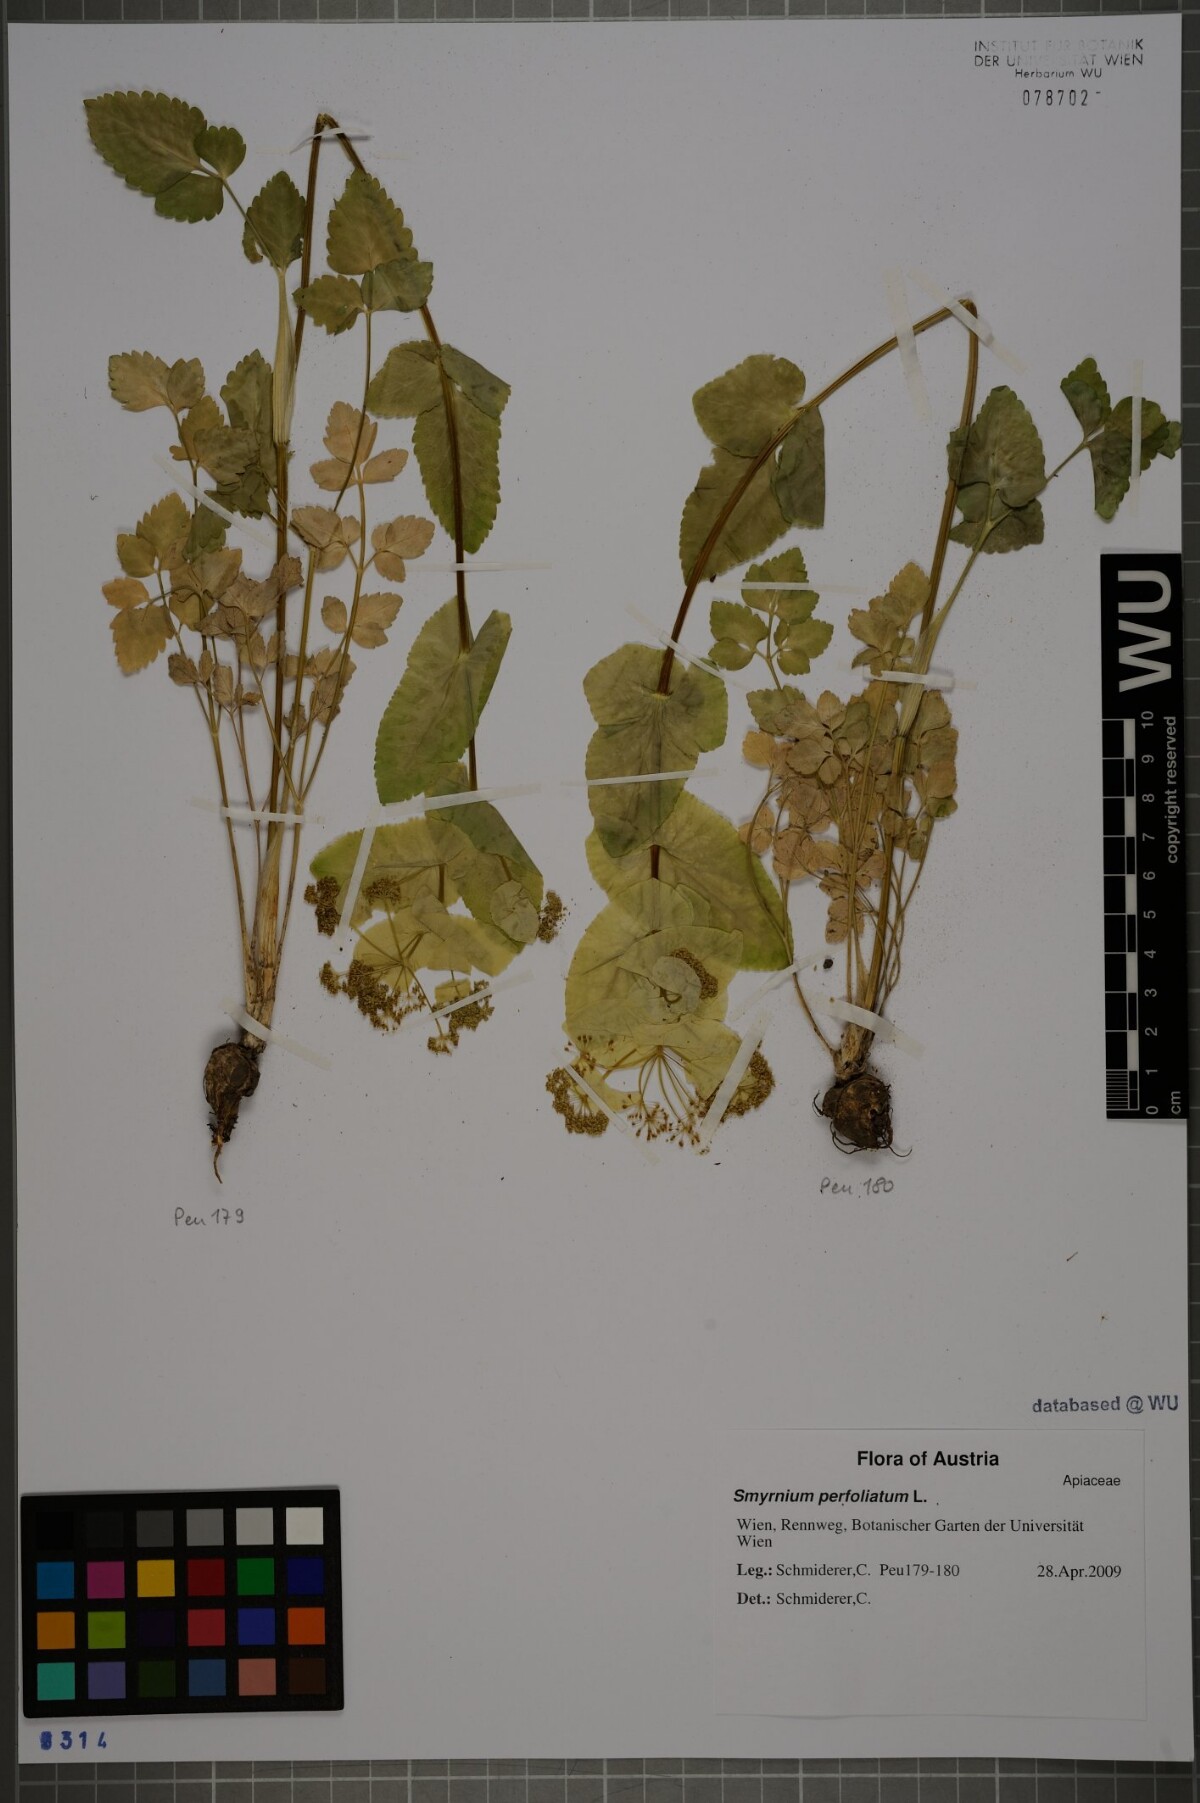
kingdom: Plantae
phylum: Tracheophyta
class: Magnoliopsida
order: Apiales
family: Apiaceae
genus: Smyrnium
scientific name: Smyrnium perfoliatum
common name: Perfoliate alexanders
